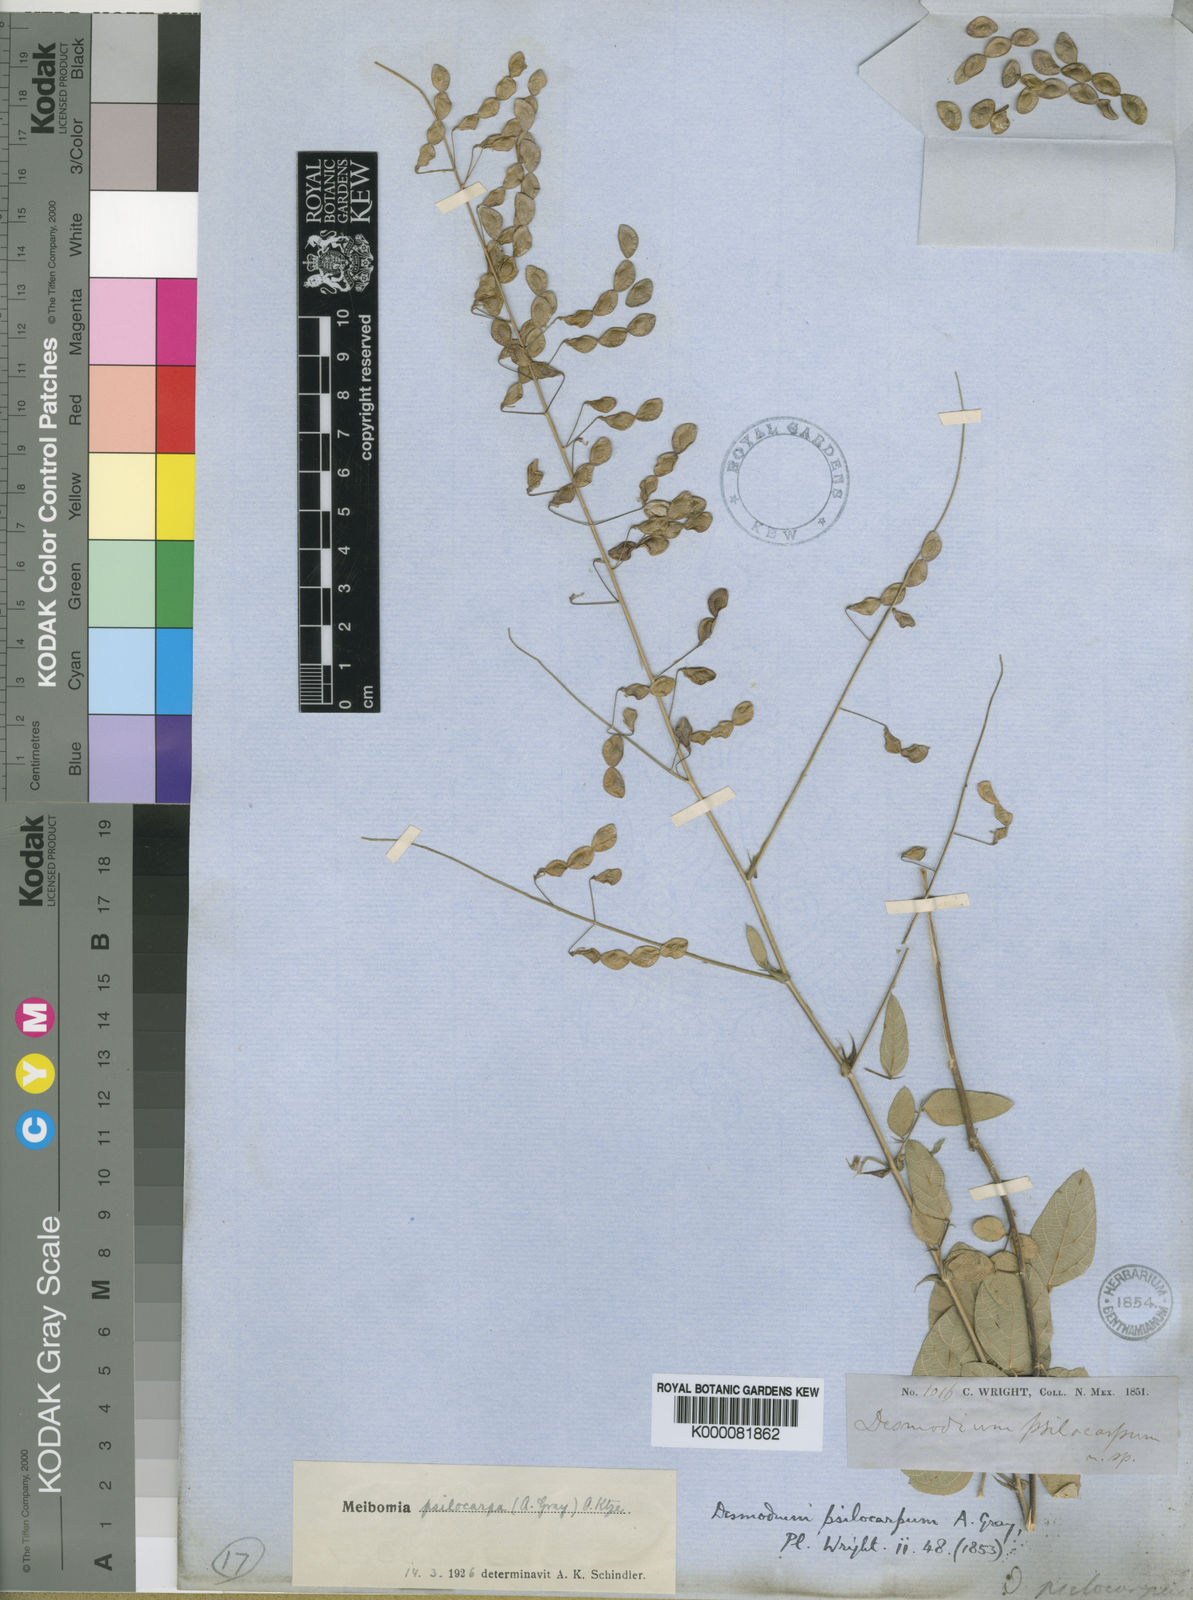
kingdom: Plantae
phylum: Tracheophyta
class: Magnoliopsida
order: Fabales
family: Fabaceae
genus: Desmodium
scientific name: Desmodium psilocarpum
